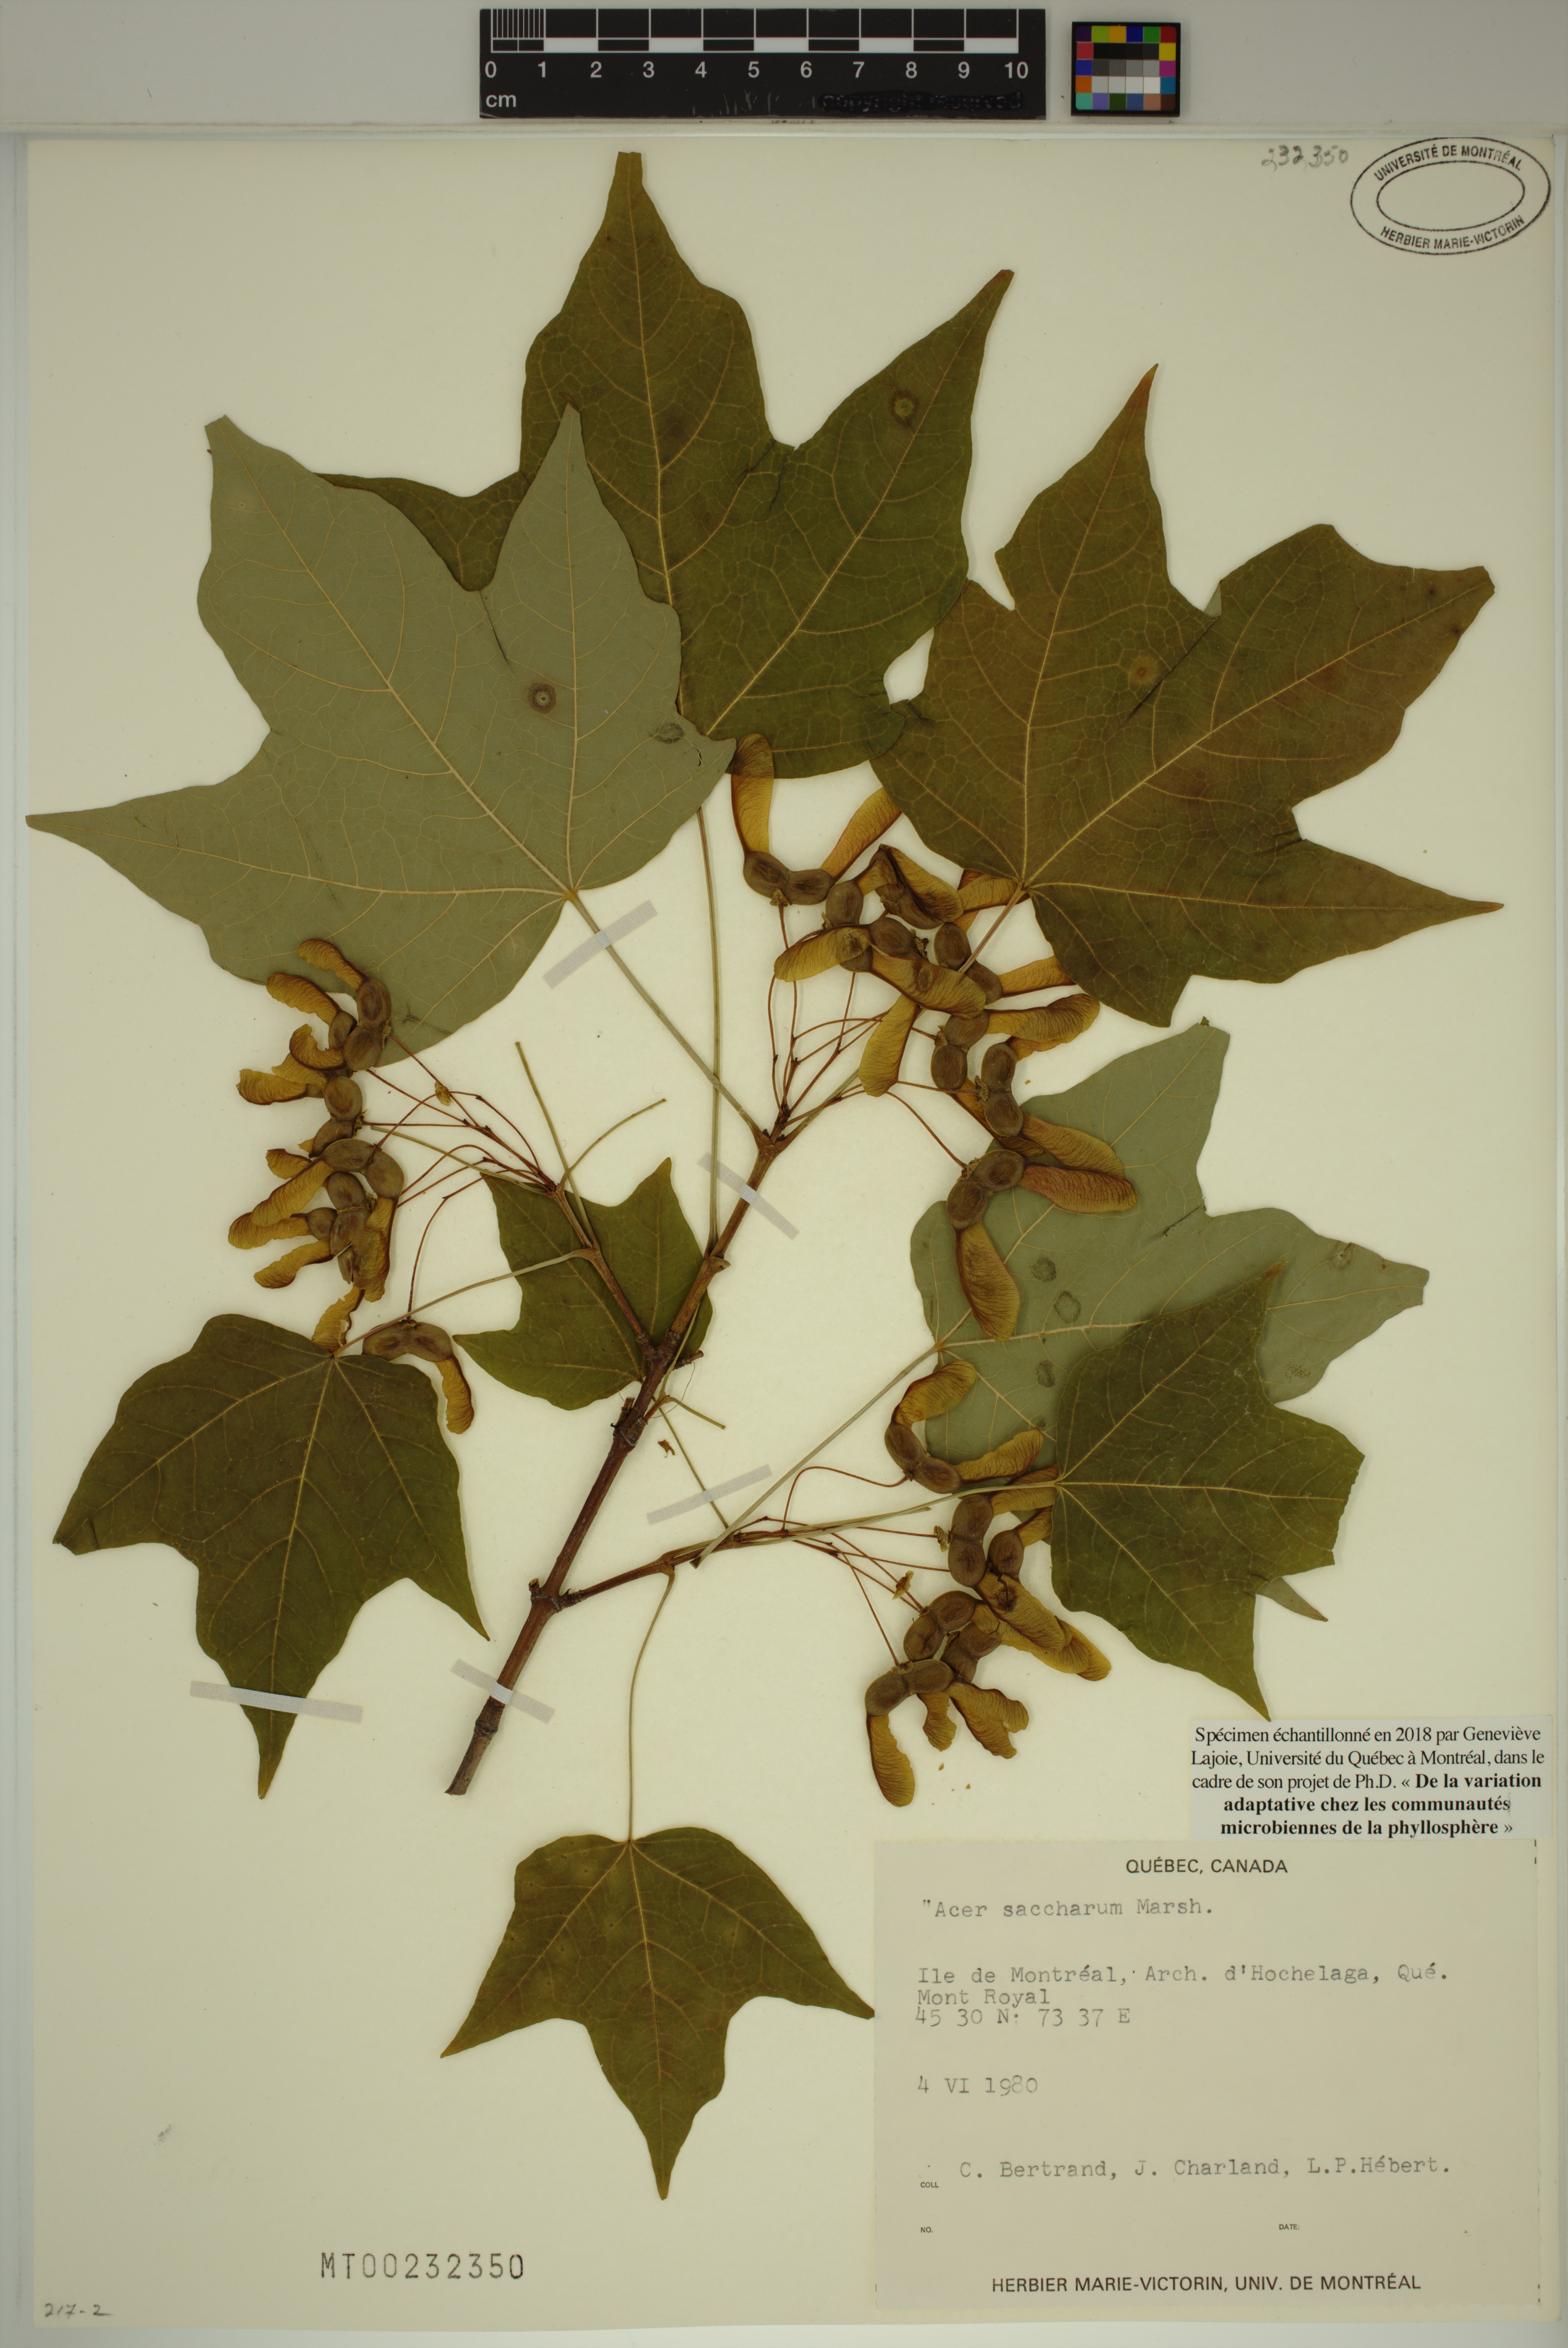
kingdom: Plantae
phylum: Tracheophyta
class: Magnoliopsida
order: Sapindales
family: Sapindaceae
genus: Acer
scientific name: Acer saccharum
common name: Sugar maple
